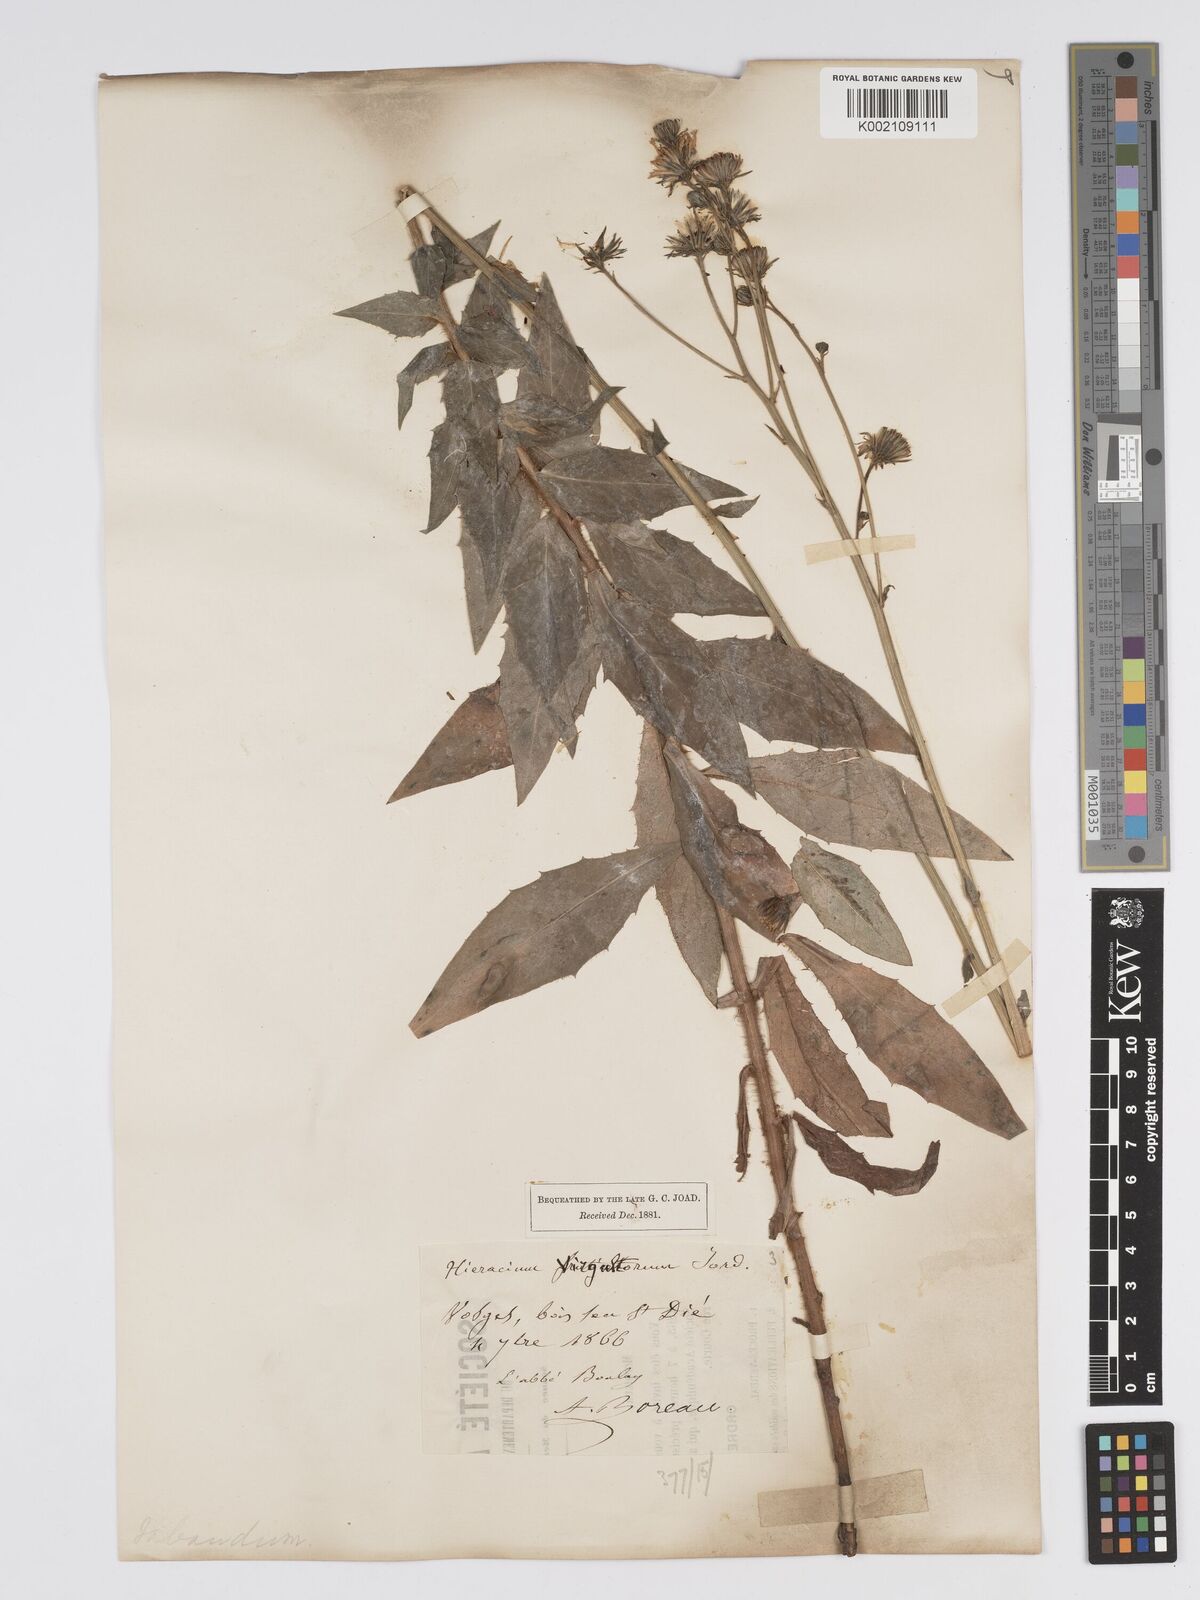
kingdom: Plantae
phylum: Tracheophyta
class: Magnoliopsida
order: Asterales
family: Asteraceae
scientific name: Asteraceae
